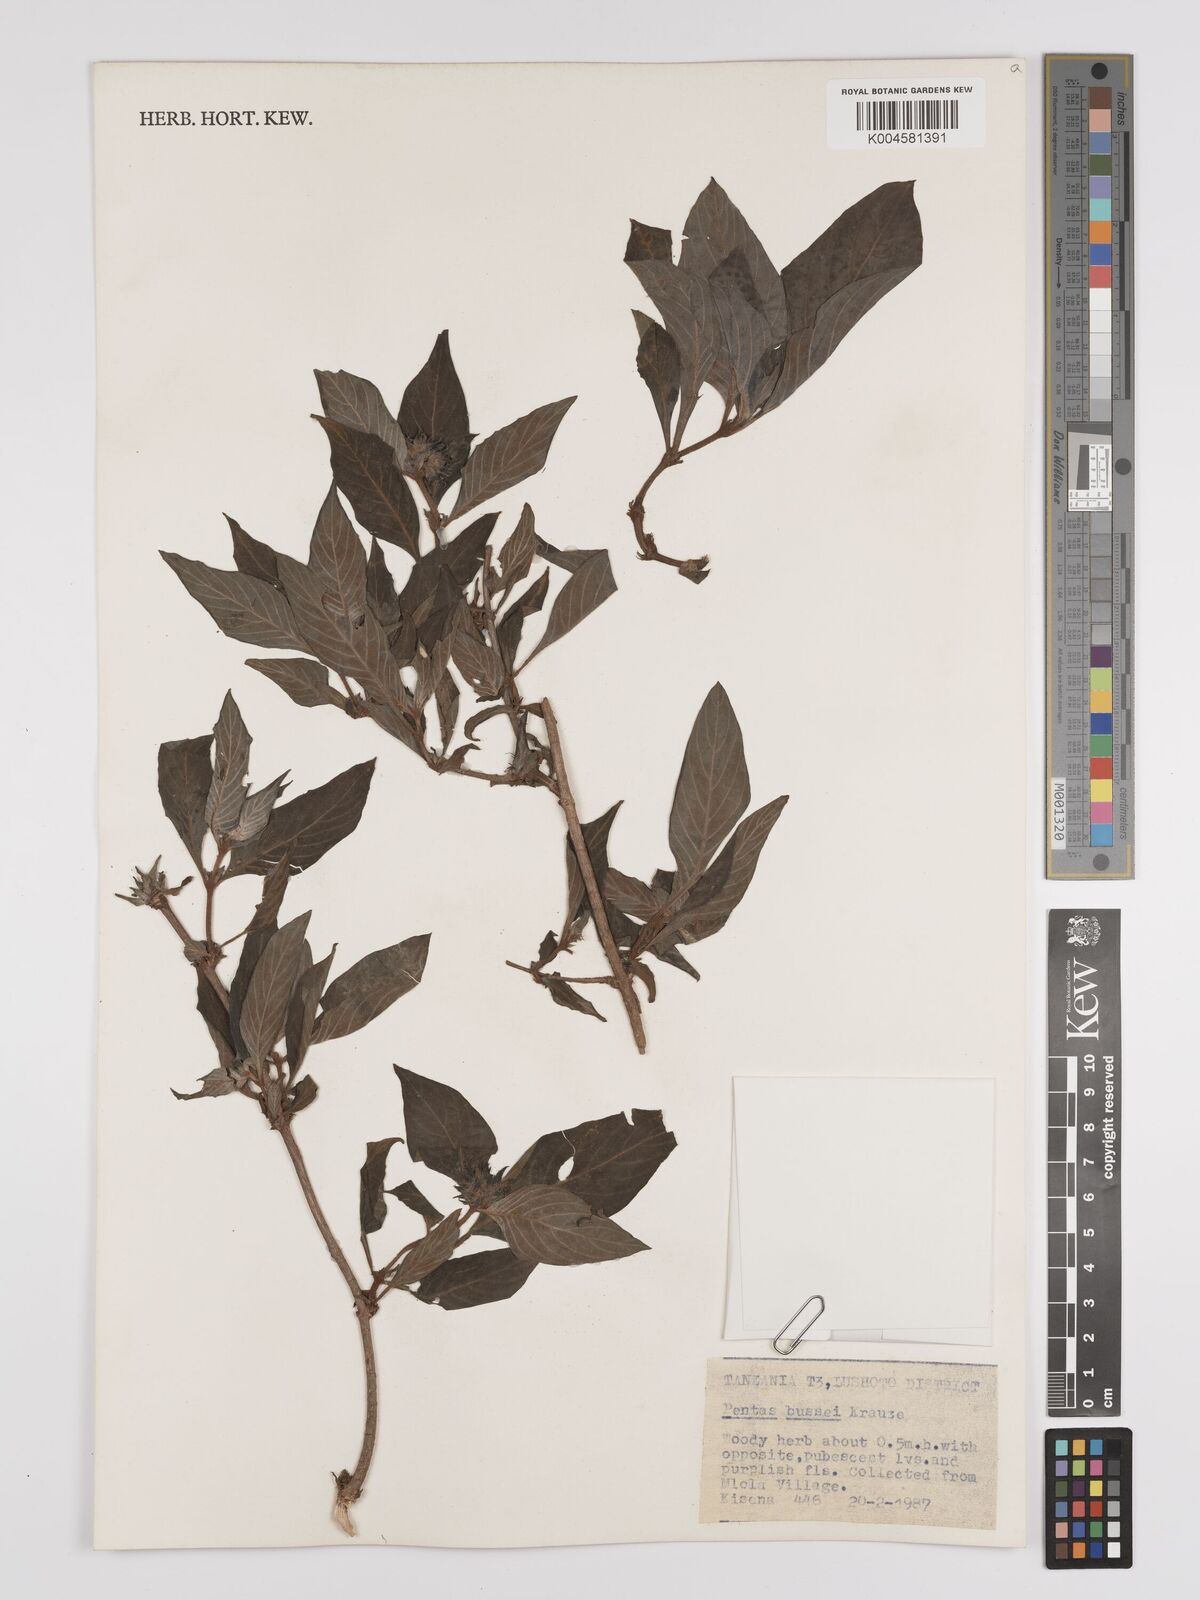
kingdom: Plantae
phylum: Tracheophyta
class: Magnoliopsida
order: Gentianales
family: Rubiaceae
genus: Rhodopentas
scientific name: Rhodopentas bussei
